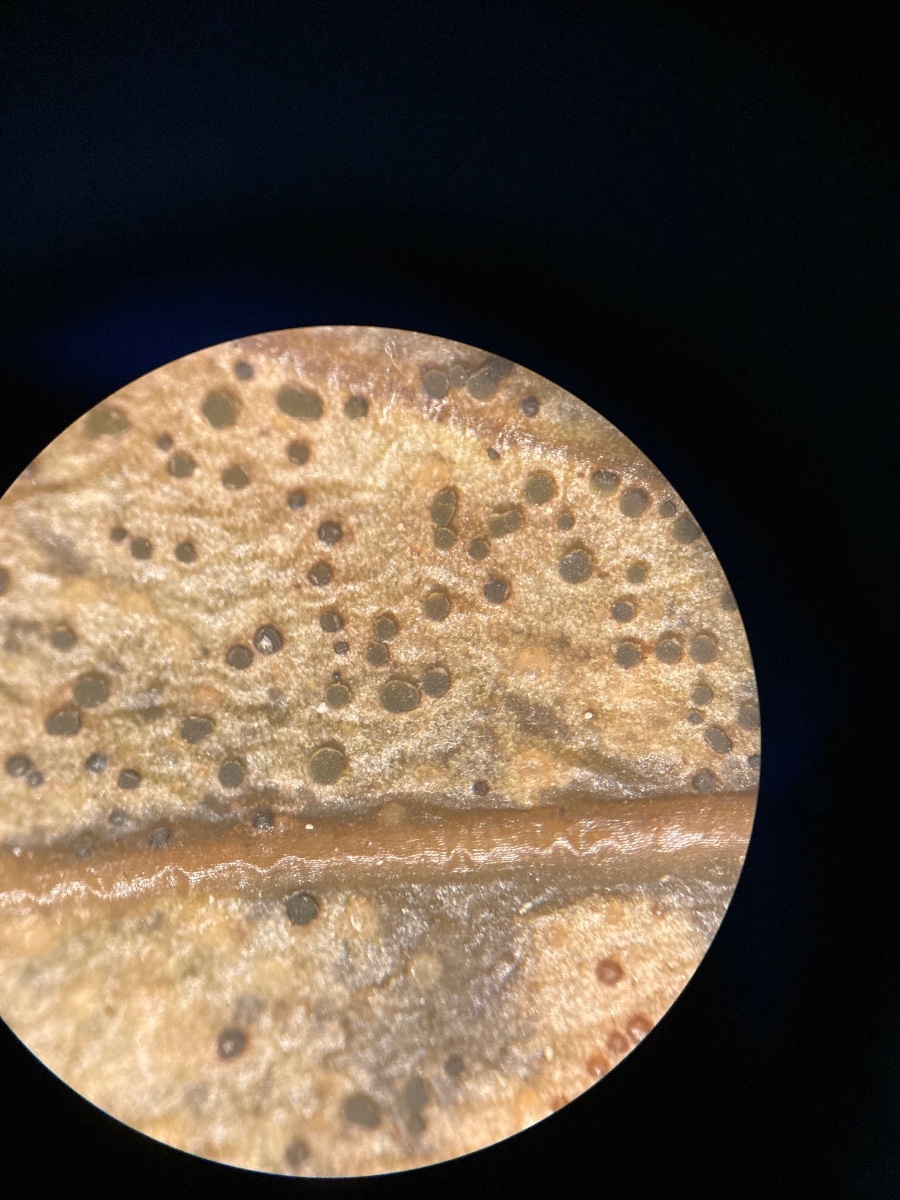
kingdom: Fungi
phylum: Ascomycota
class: Leotiomycetes
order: Helotiales
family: Cenangiaceae
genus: Trochila
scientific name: Trochila craterium
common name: vedbend-lågskive
